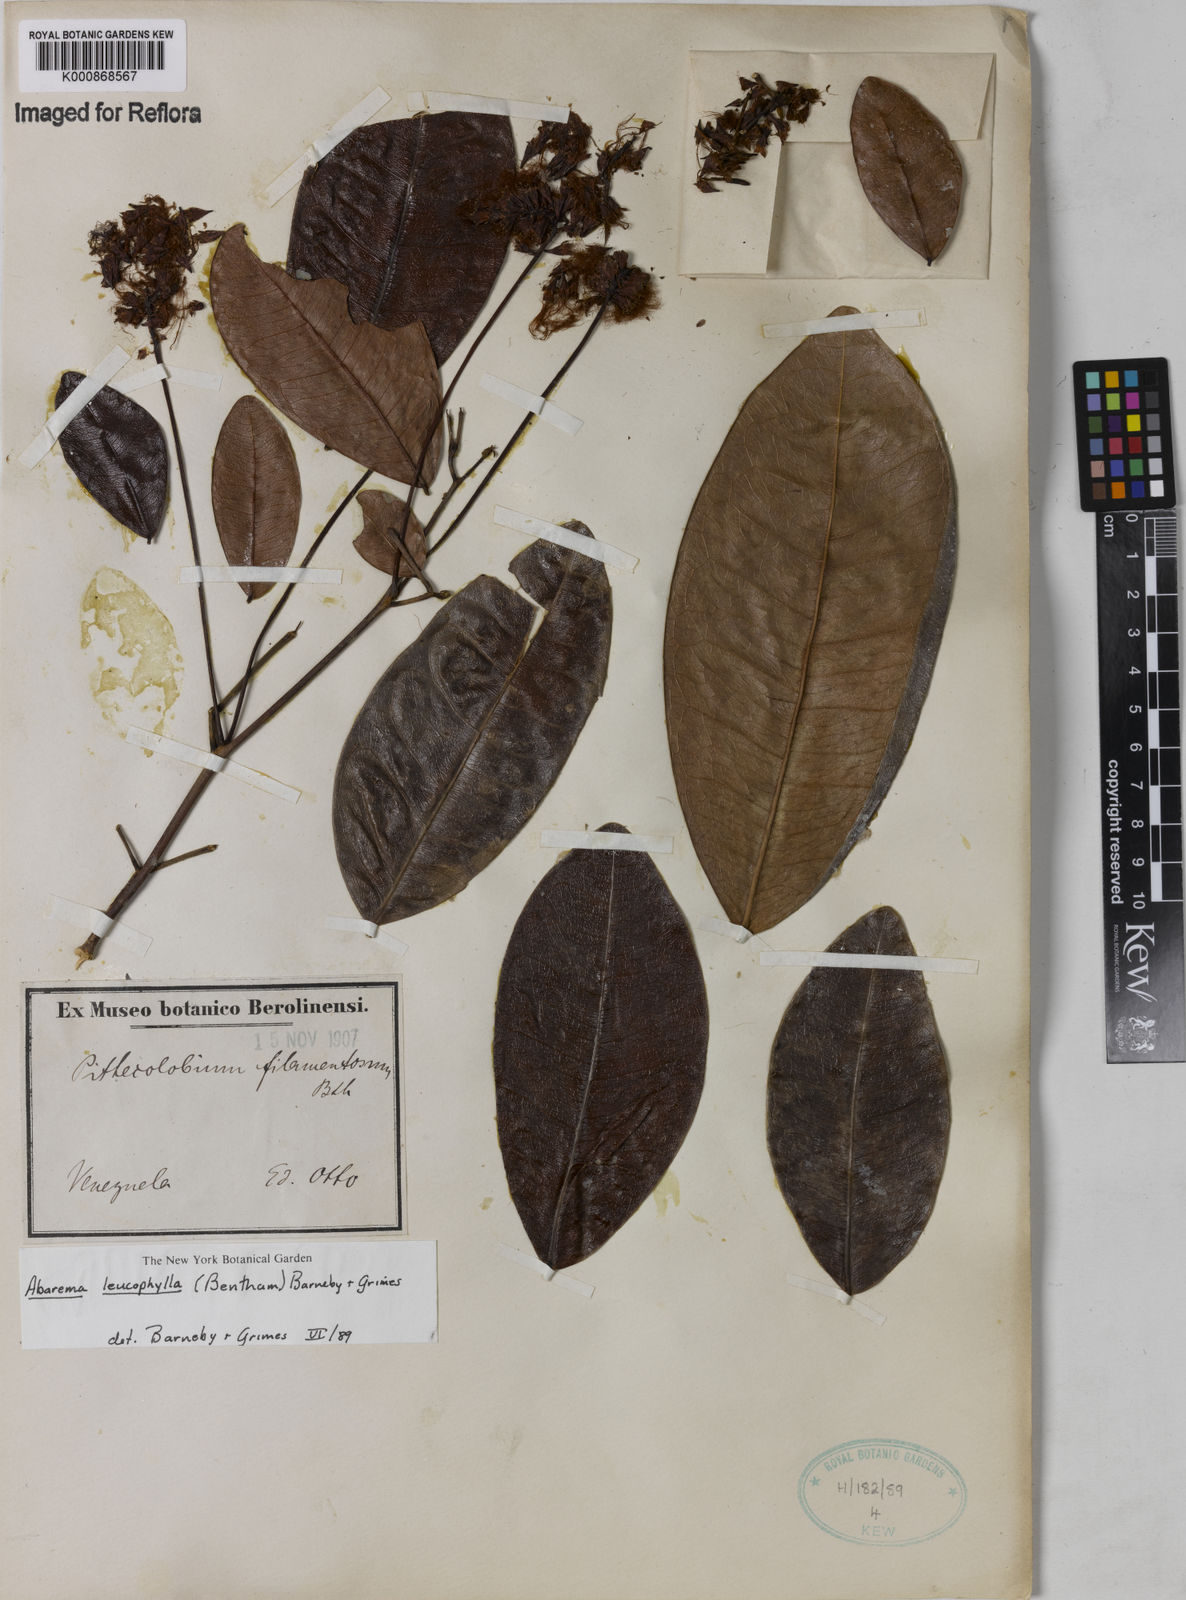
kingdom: Plantae
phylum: Tracheophyta
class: Magnoliopsida
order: Fabales
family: Fabaceae
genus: Jupunba
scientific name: Jupunba leucophylla
